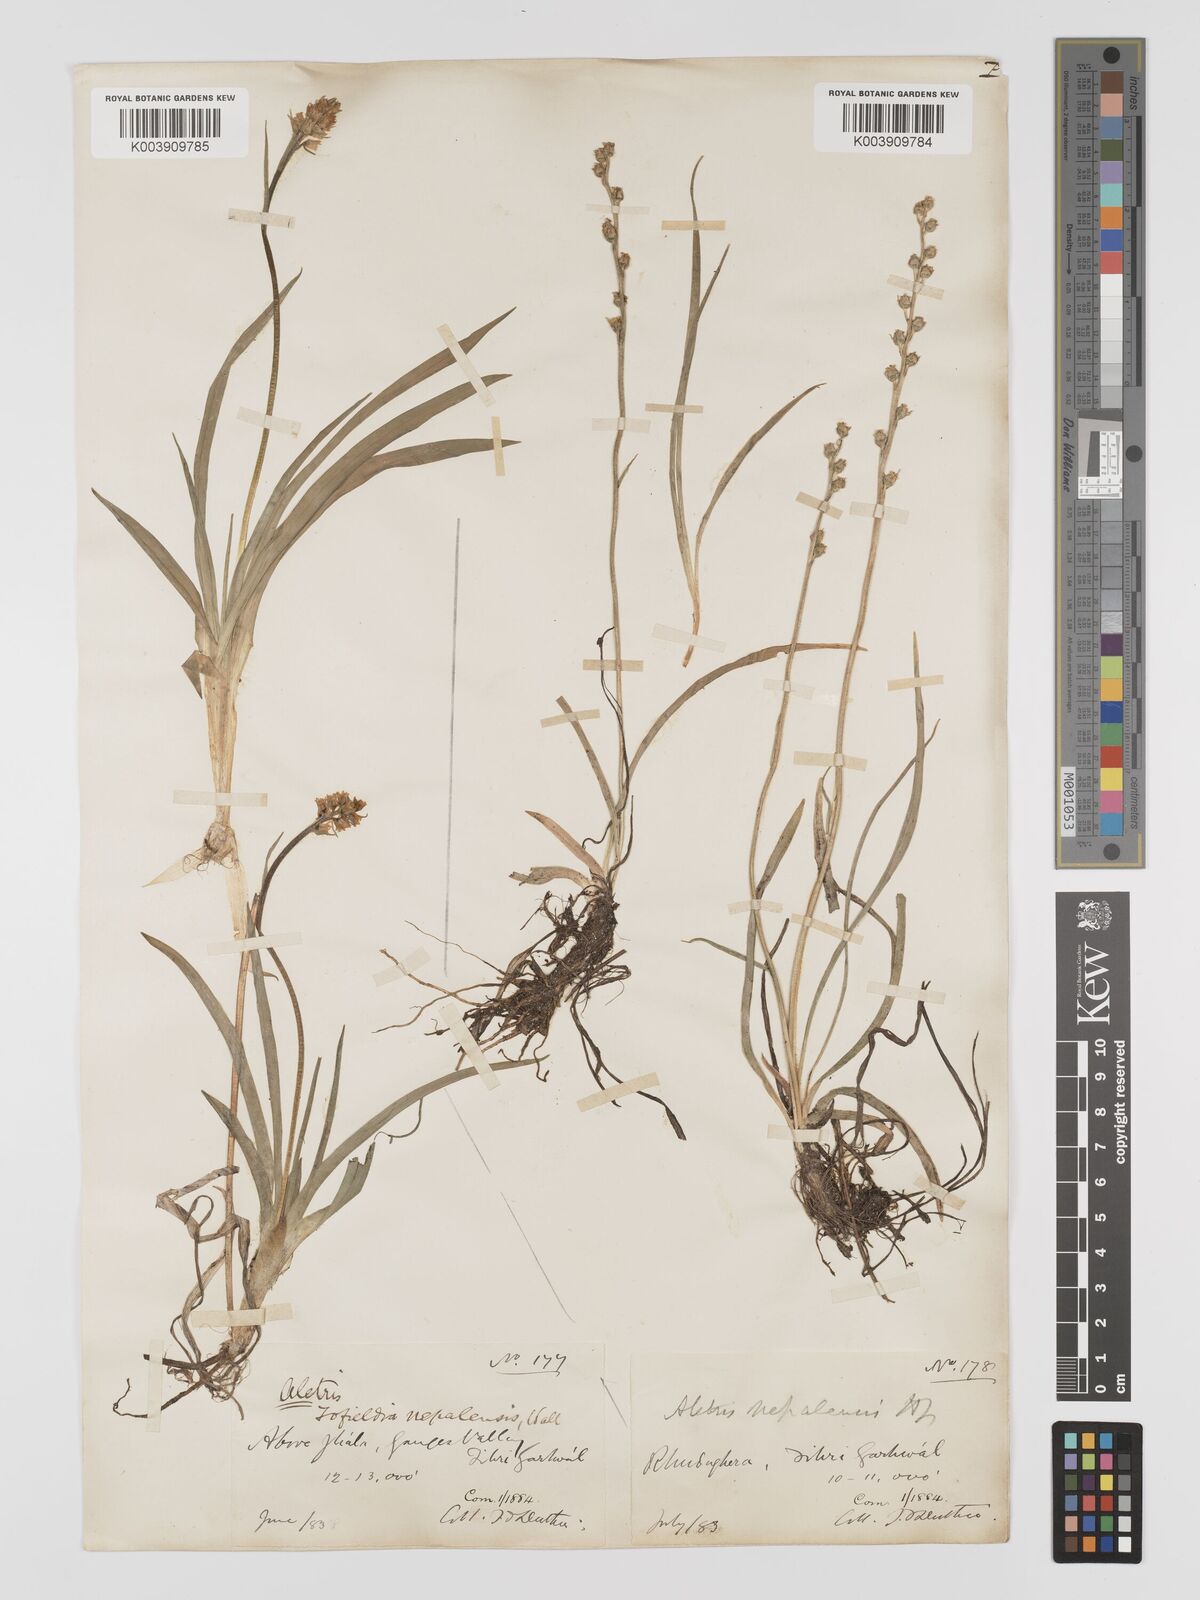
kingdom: Plantae
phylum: Tracheophyta
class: Liliopsida
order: Dioscoreales
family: Nartheciaceae
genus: Aletris
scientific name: Aletris pauciflora
